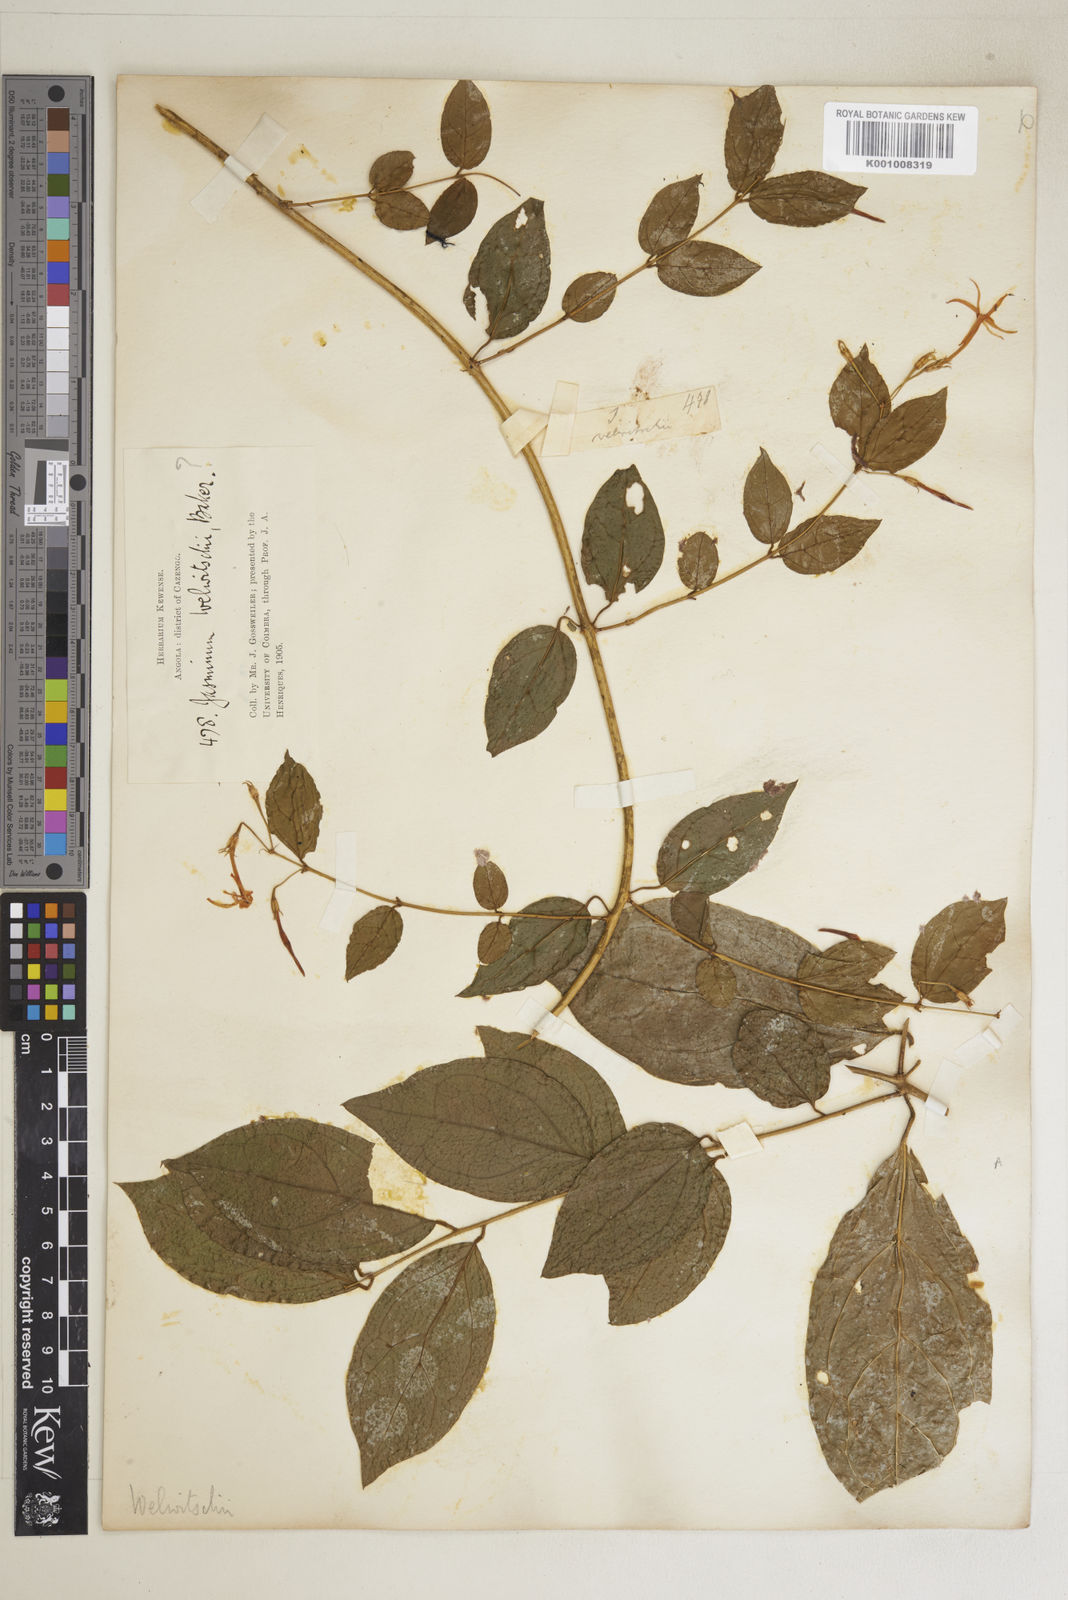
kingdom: Plantae
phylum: Tracheophyta
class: Magnoliopsida
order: Lamiales
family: Oleaceae
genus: Jasminum
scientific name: Jasminum pauciflorum
